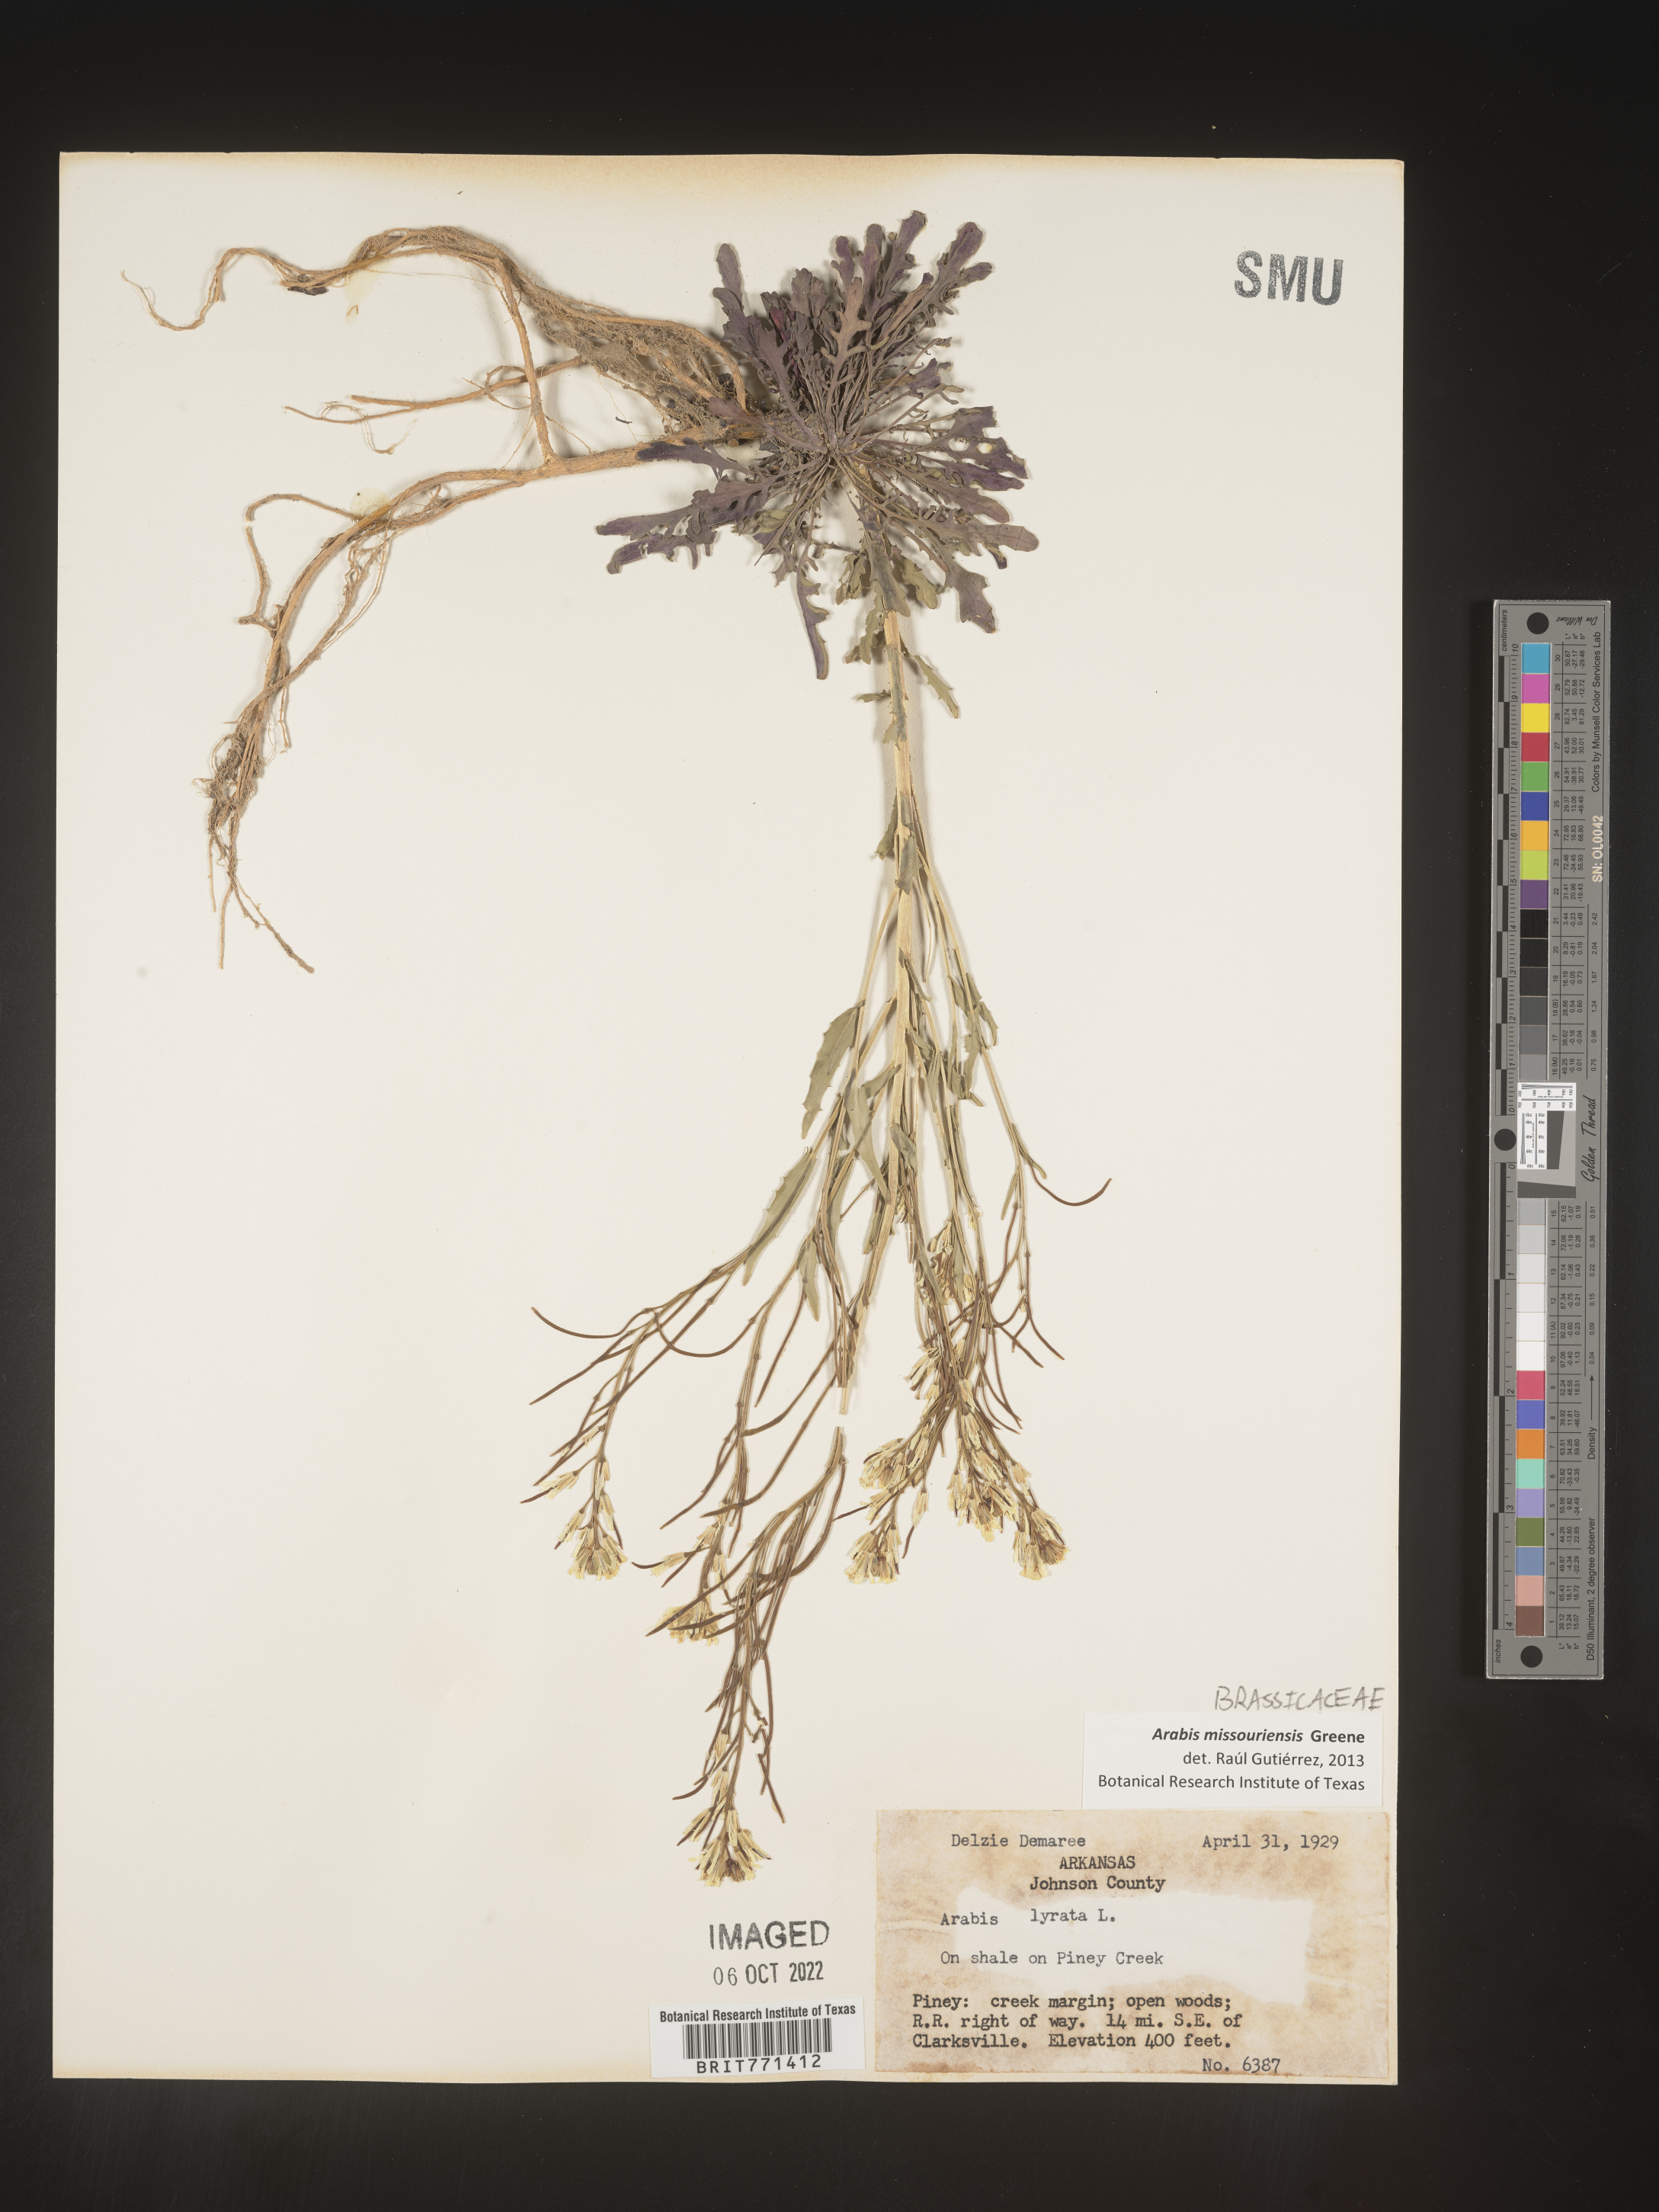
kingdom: Plantae
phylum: Tracheophyta
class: Magnoliopsida
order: Brassicales
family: Brassicaceae
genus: Arabis
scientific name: Arabis
